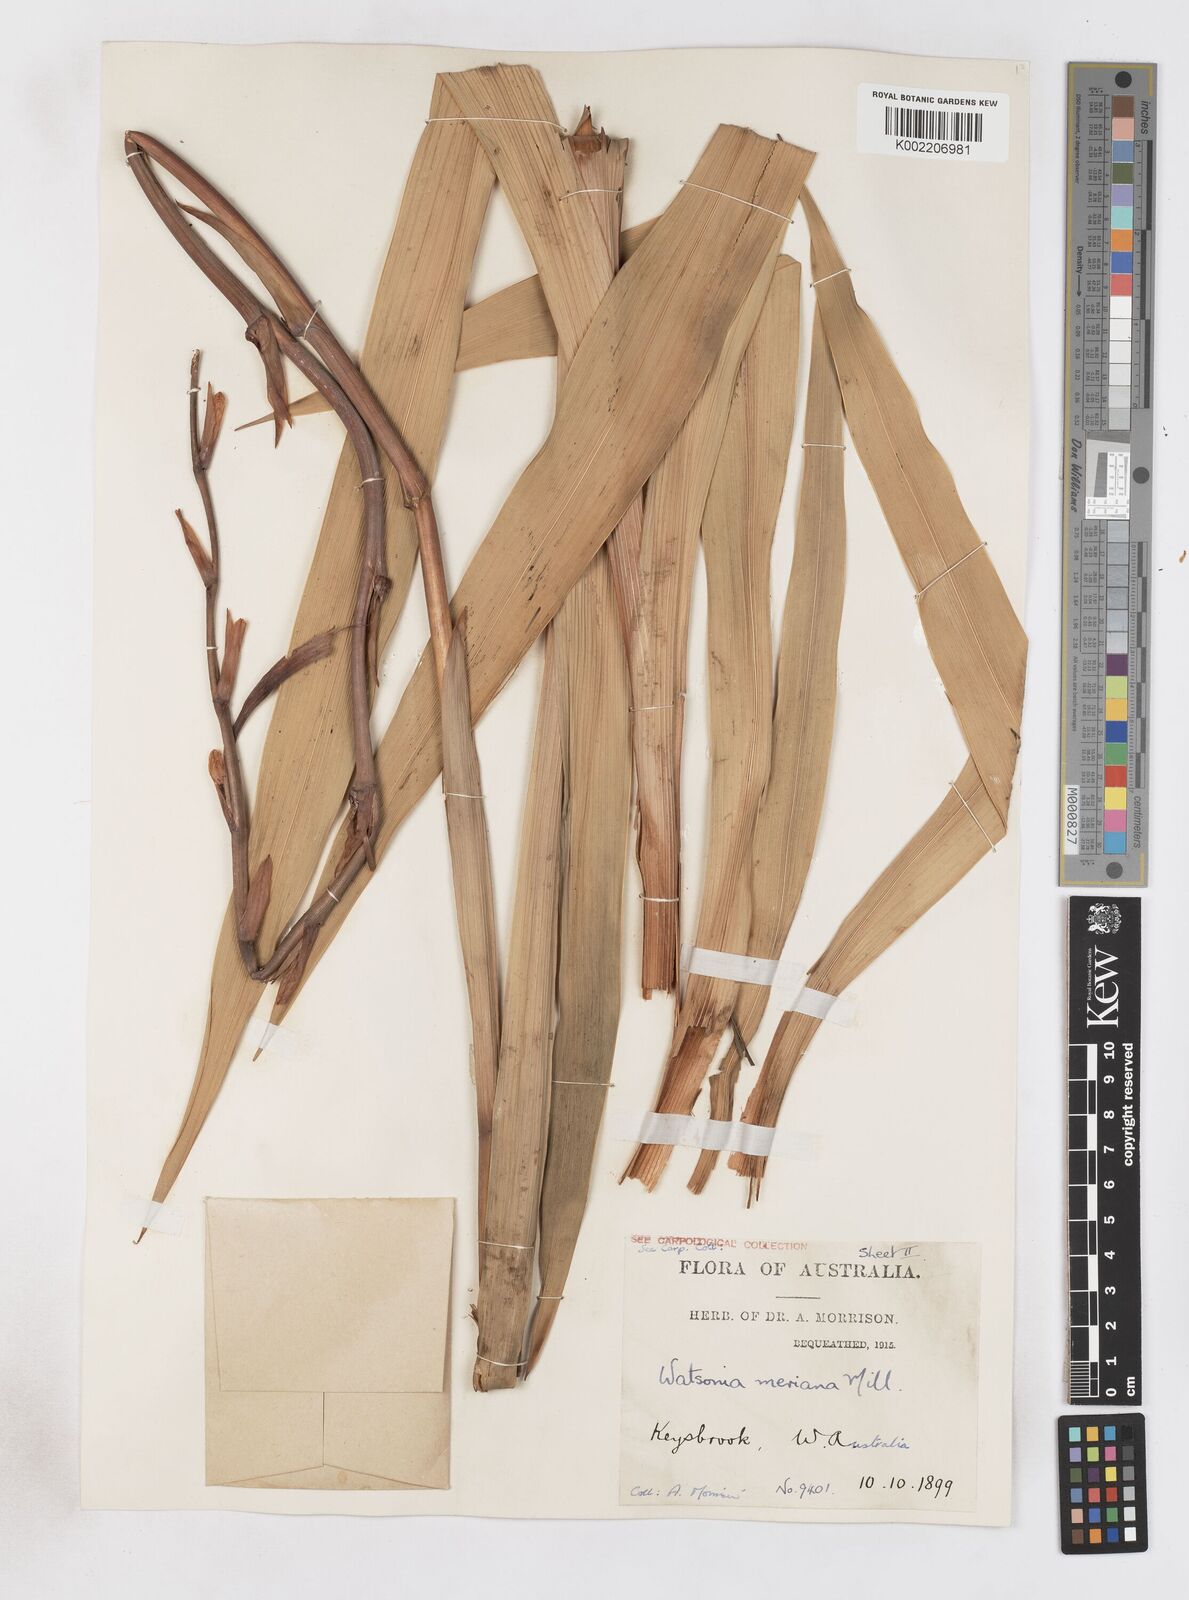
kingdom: Plantae
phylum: Tracheophyta
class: Liliopsida
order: Asparagales
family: Iridaceae
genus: Pillansia
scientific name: Pillansia
